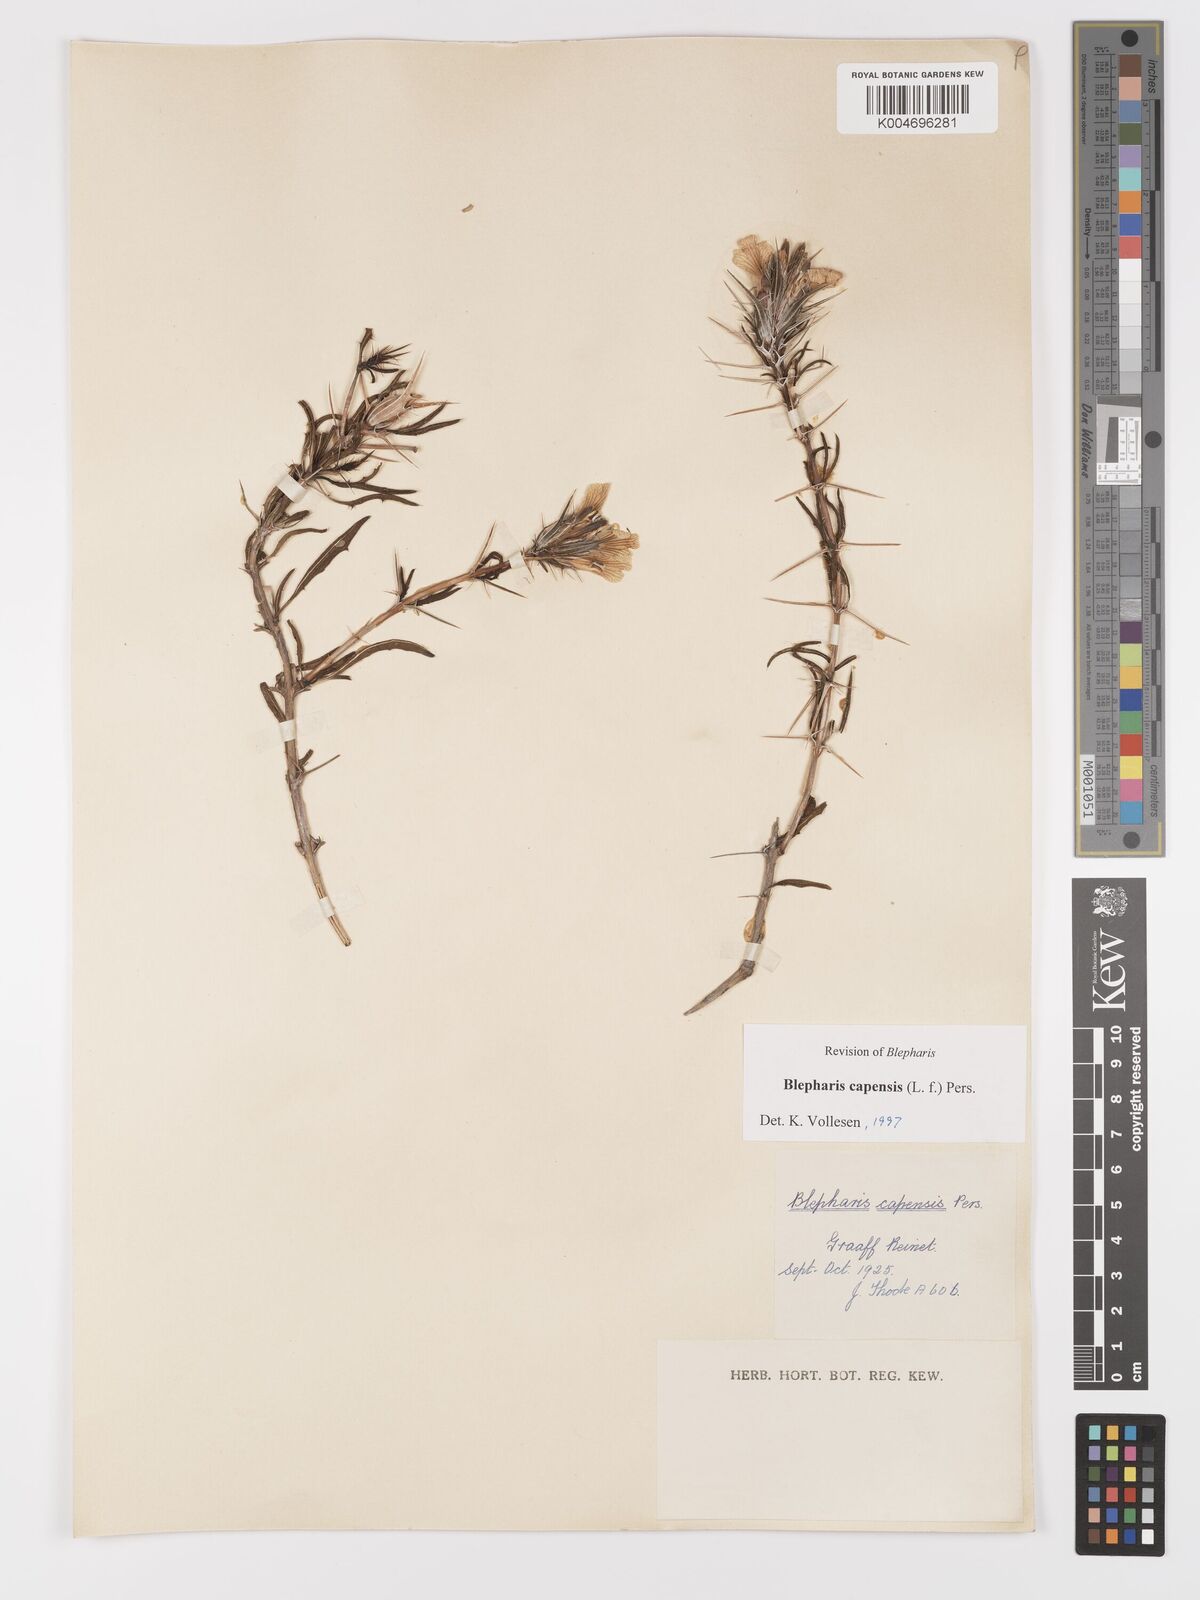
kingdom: Plantae
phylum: Tracheophyta
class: Magnoliopsida
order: Lamiales
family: Acanthaceae
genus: Blepharis
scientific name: Blepharis capensis
